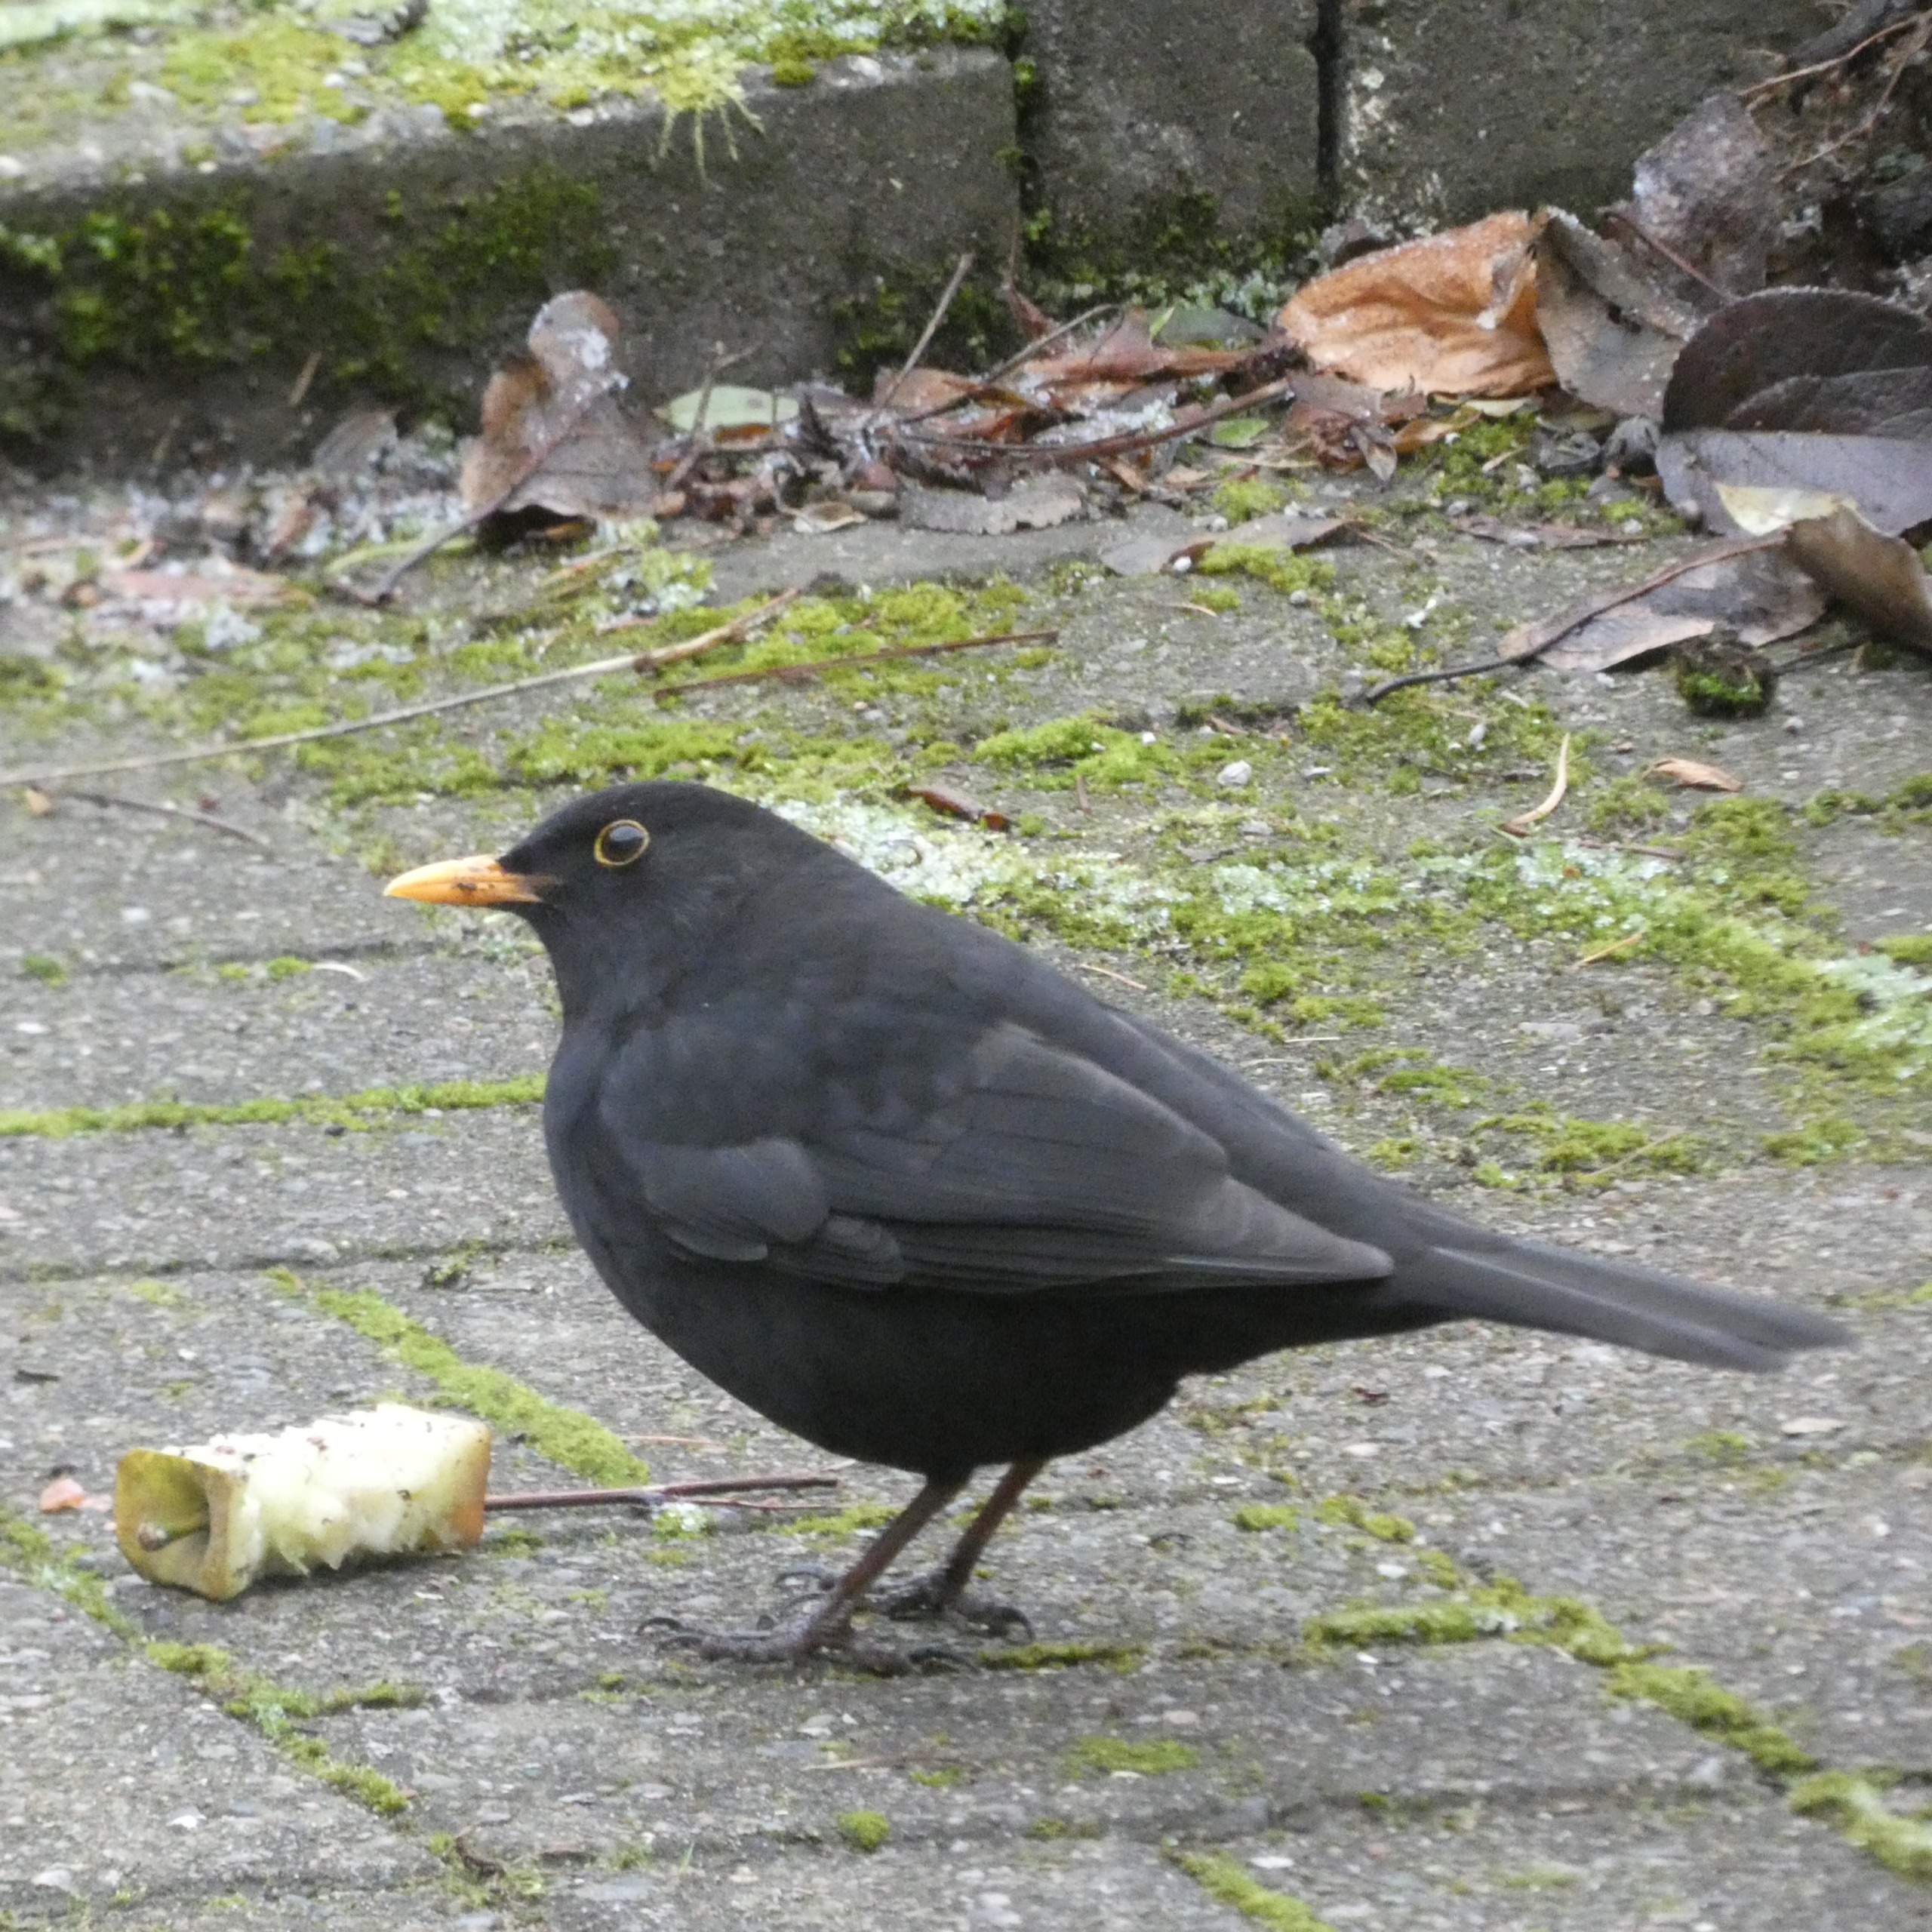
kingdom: Animalia
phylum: Chordata
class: Aves
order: Passeriformes
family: Turdidae
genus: Turdus
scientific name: Turdus merula
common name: Solsort
